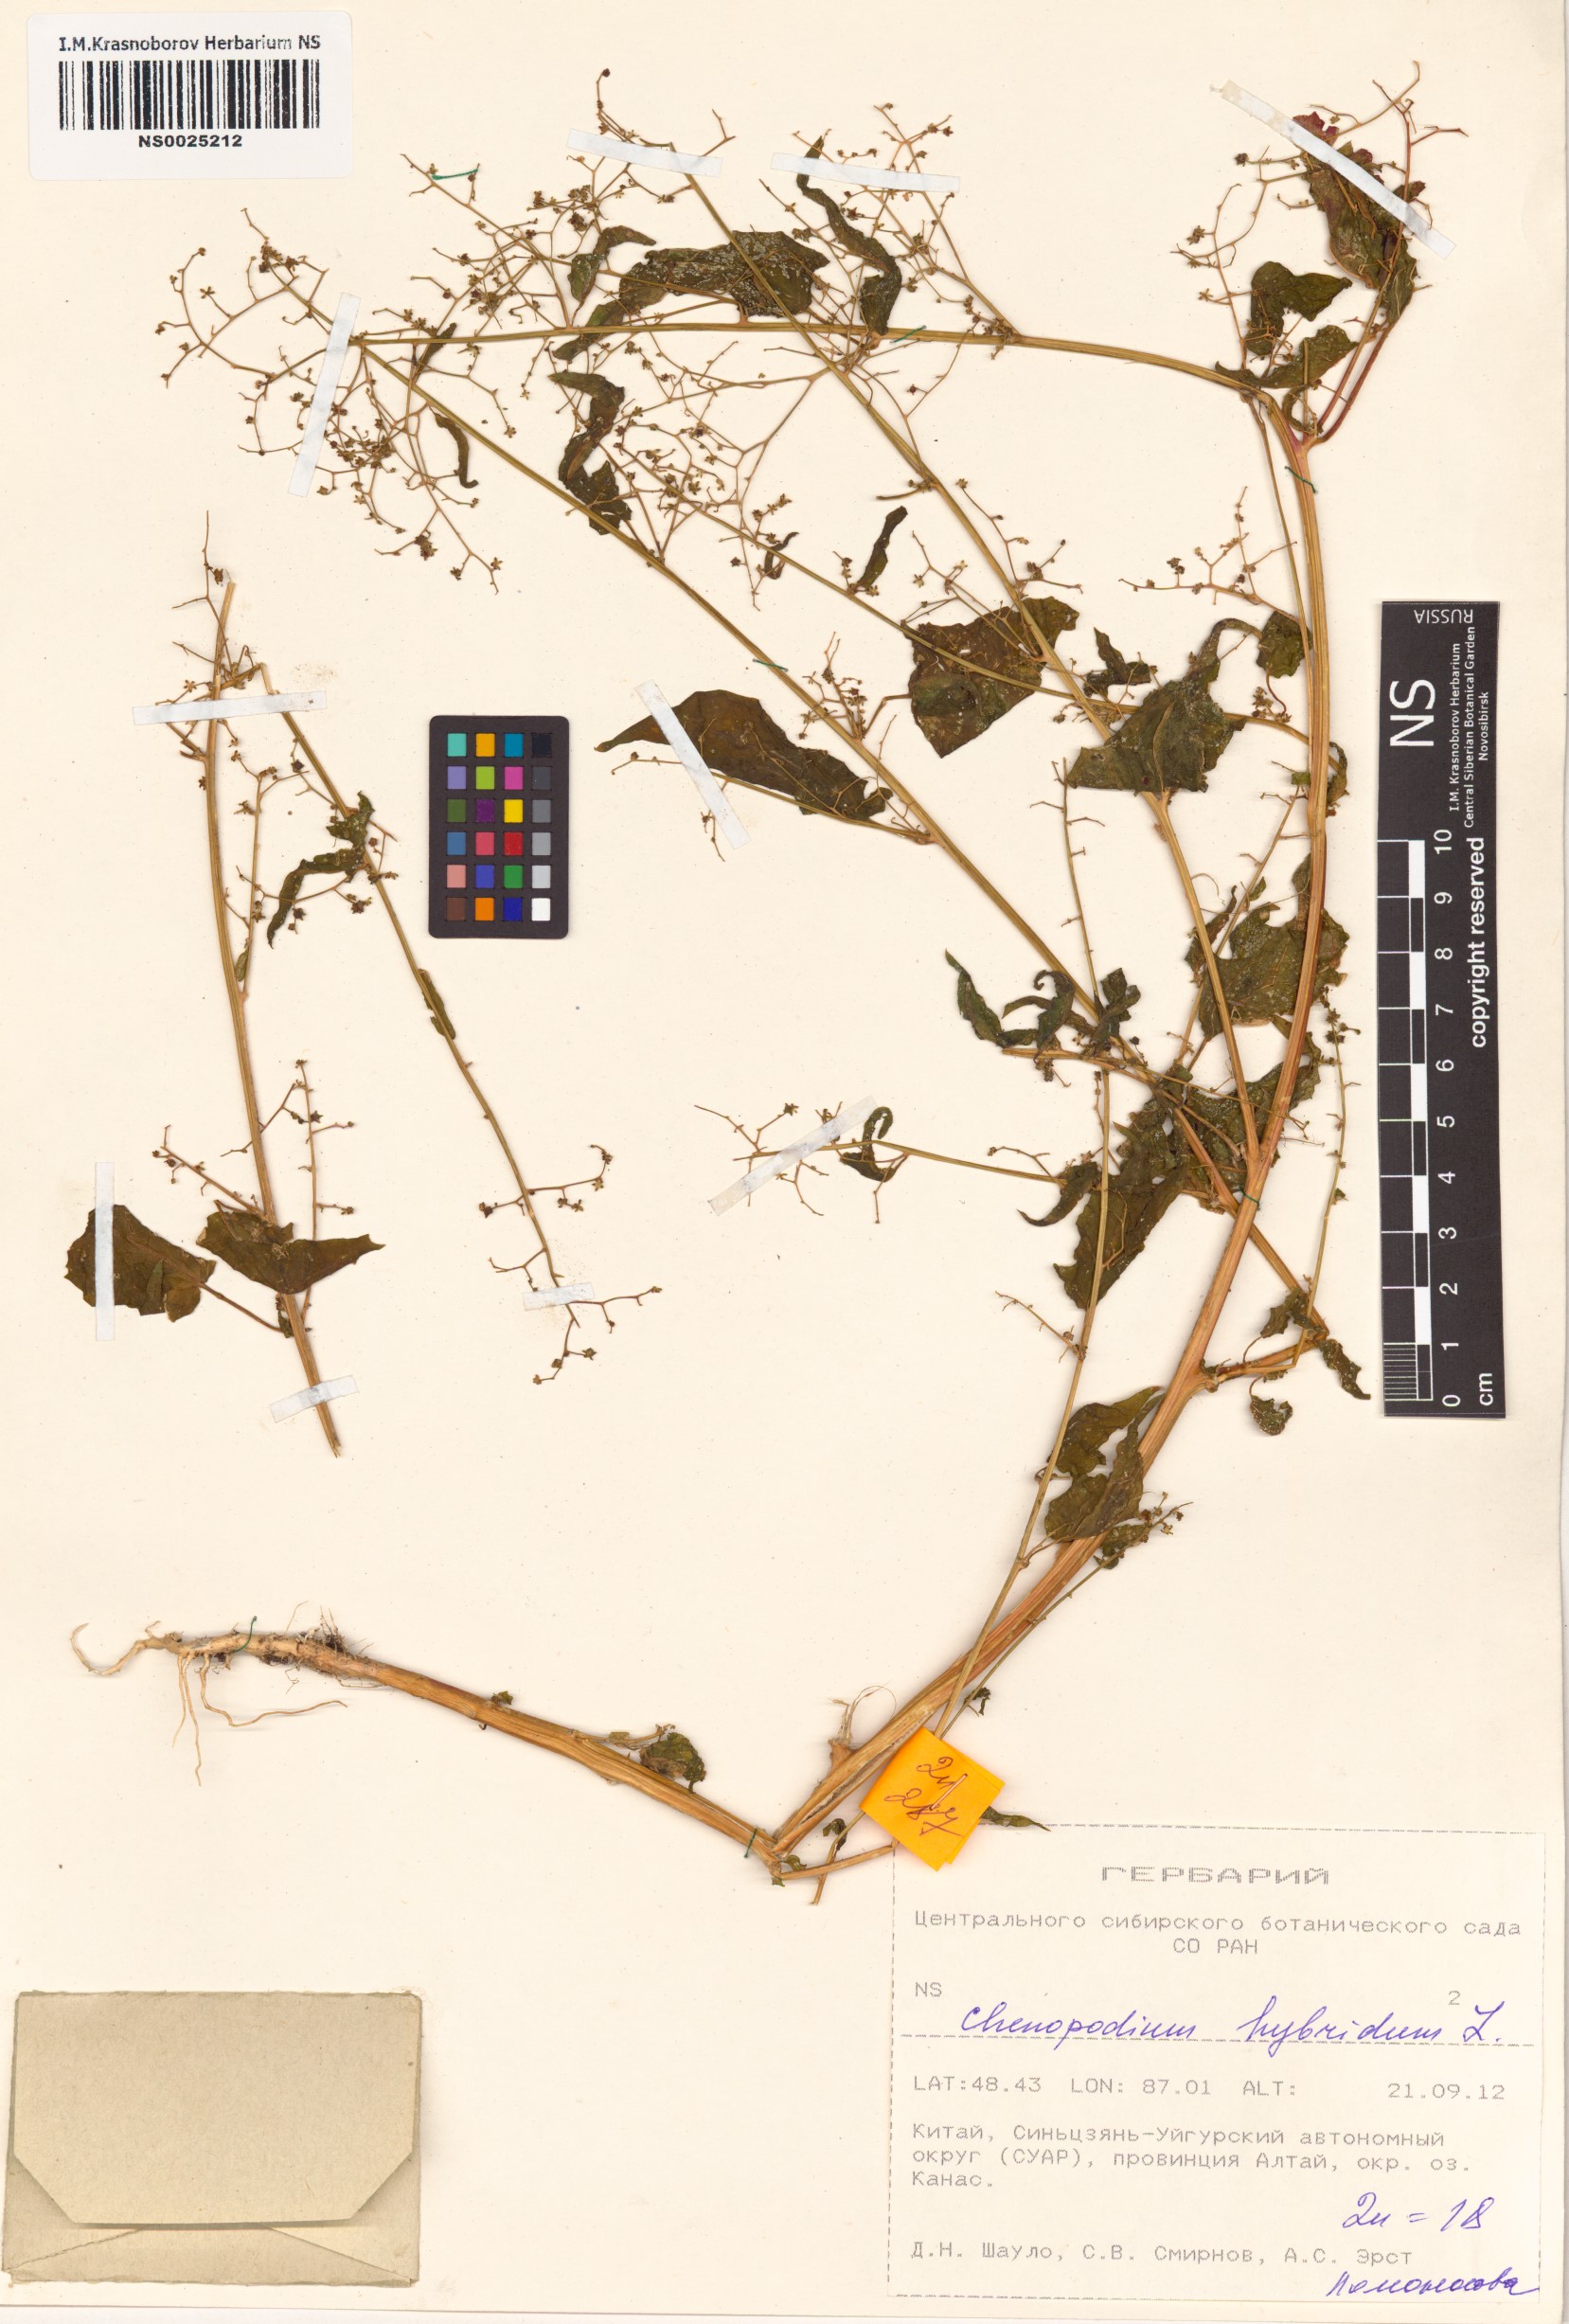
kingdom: Plantae
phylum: Tracheophyta
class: Magnoliopsida
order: Caryophyllales
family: Amaranthaceae
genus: Chenopodiastrum
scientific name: Chenopodiastrum hybridum
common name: Mapleleaf goosefoot
